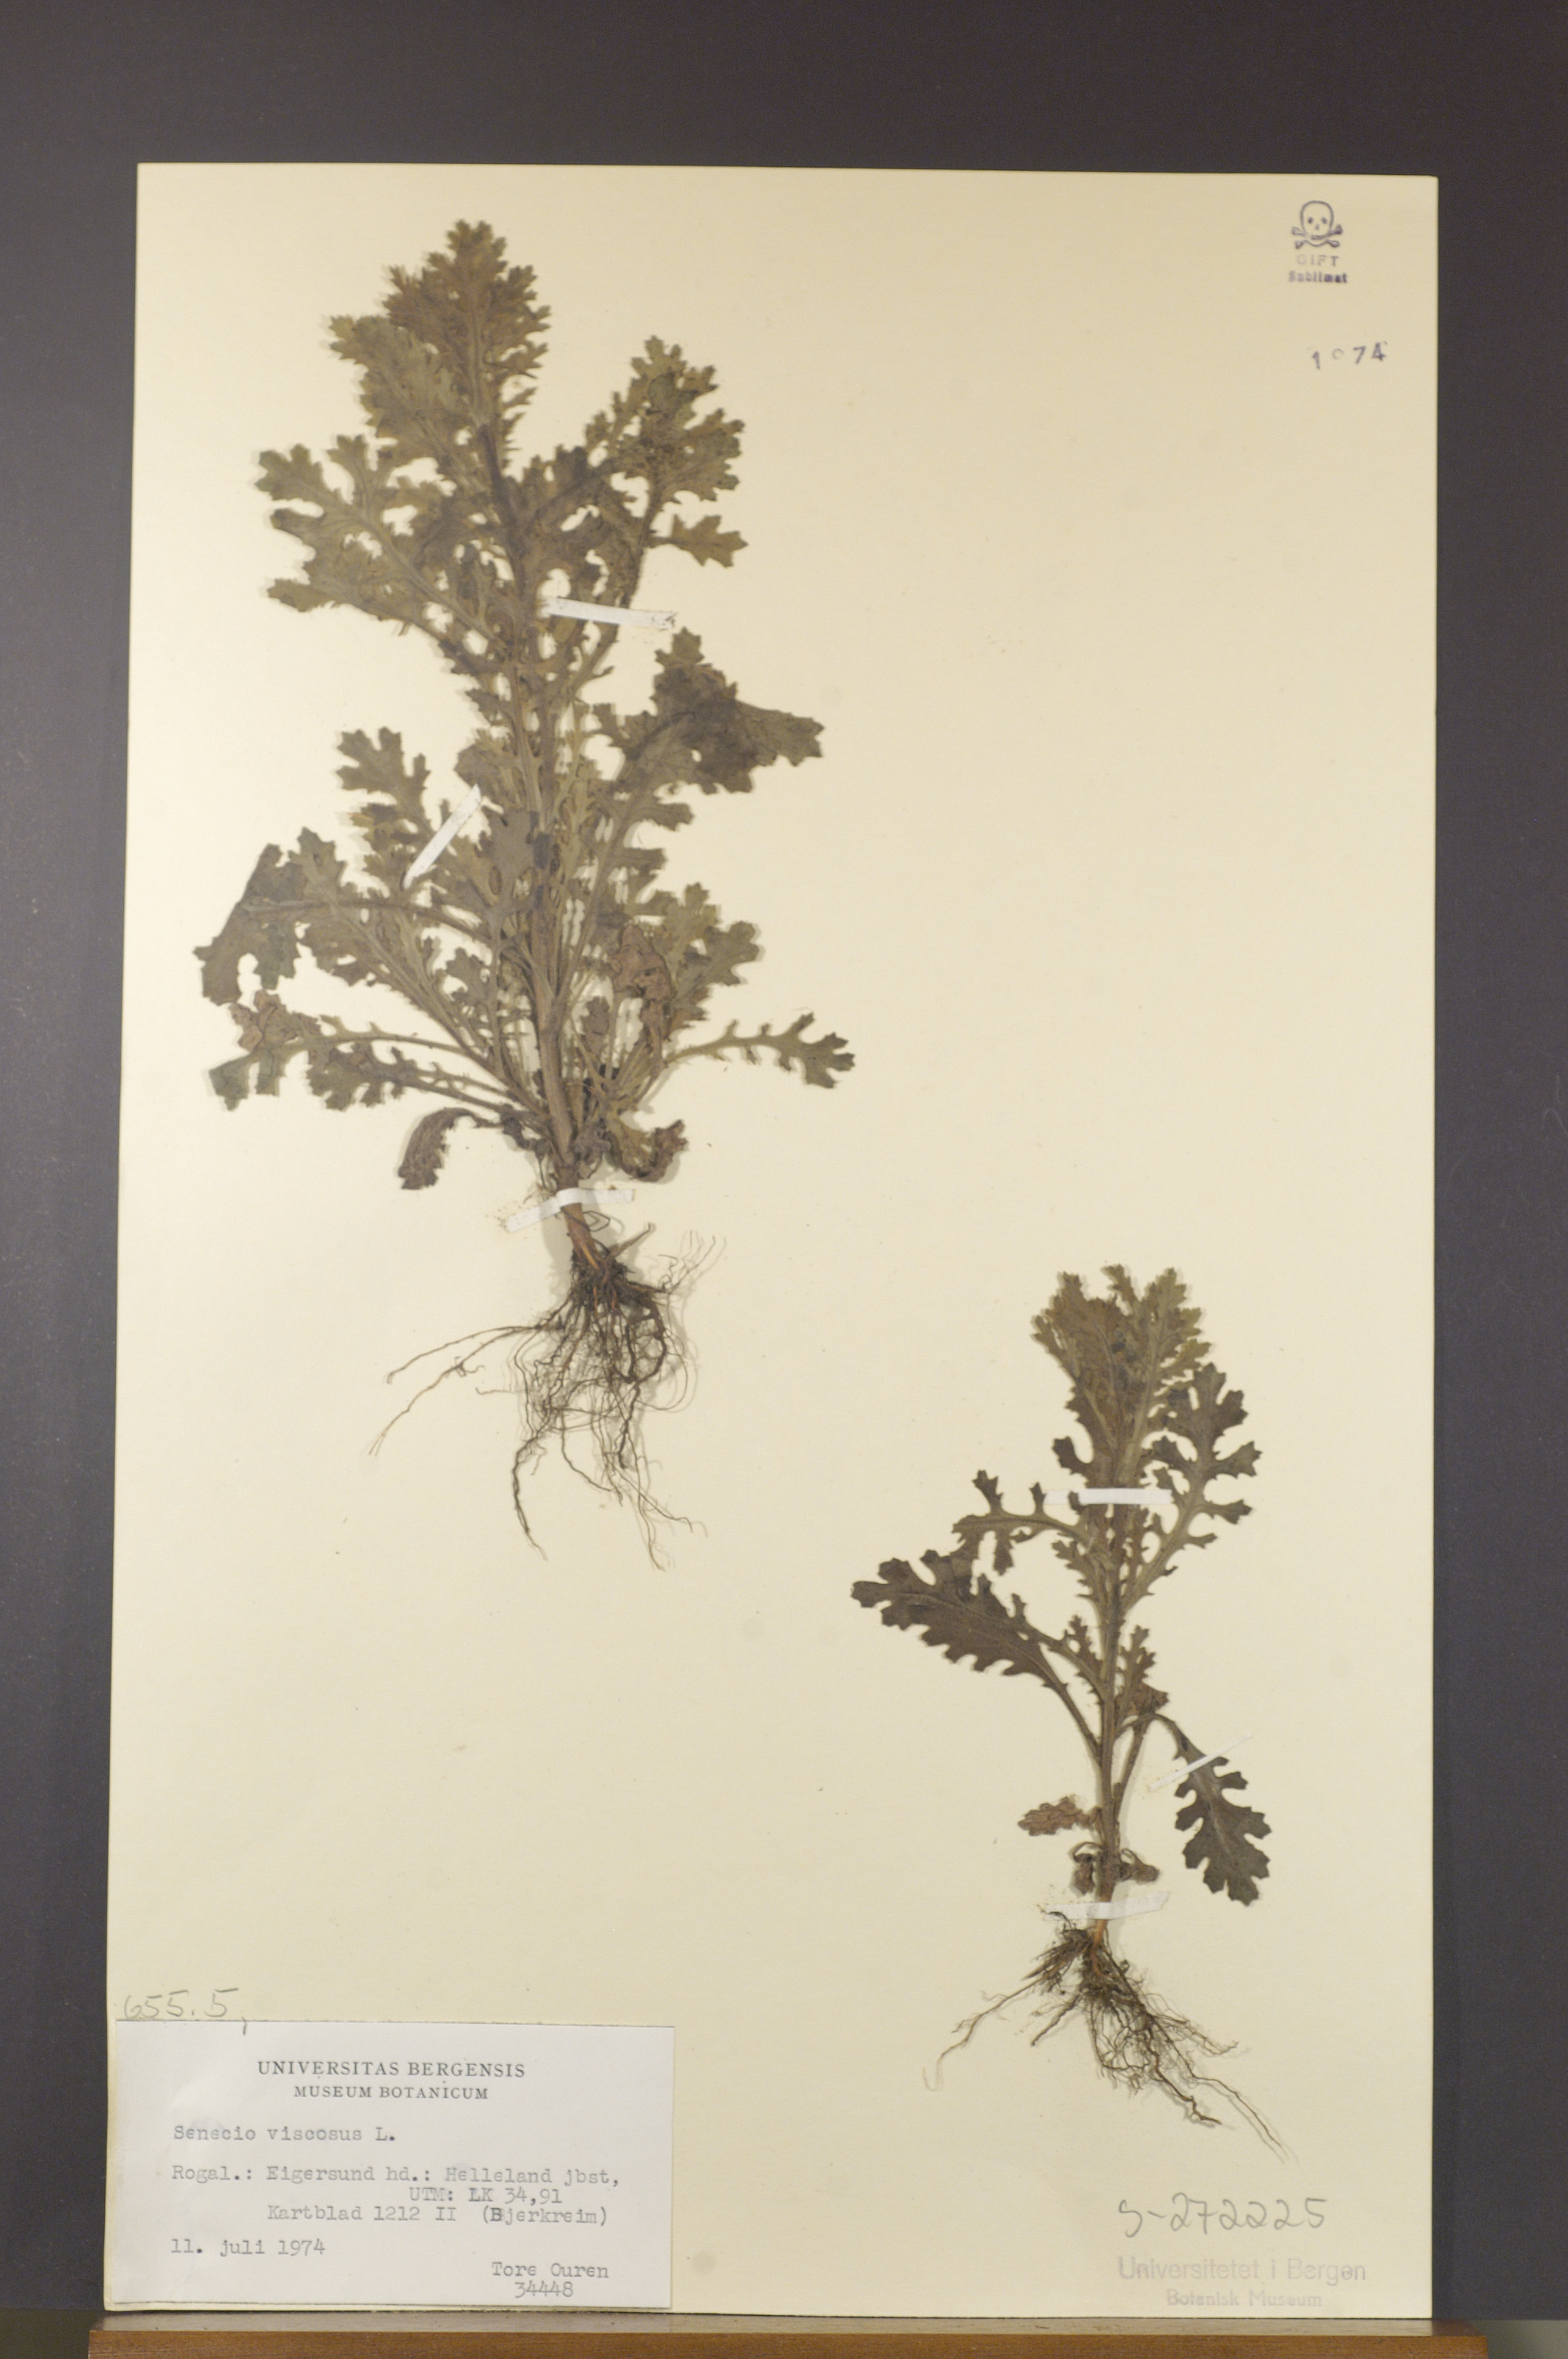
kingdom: Plantae
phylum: Tracheophyta
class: Magnoliopsida
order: Asterales
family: Asteraceae
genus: Senecio
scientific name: Senecio viscosus
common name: Sticky groundsel
